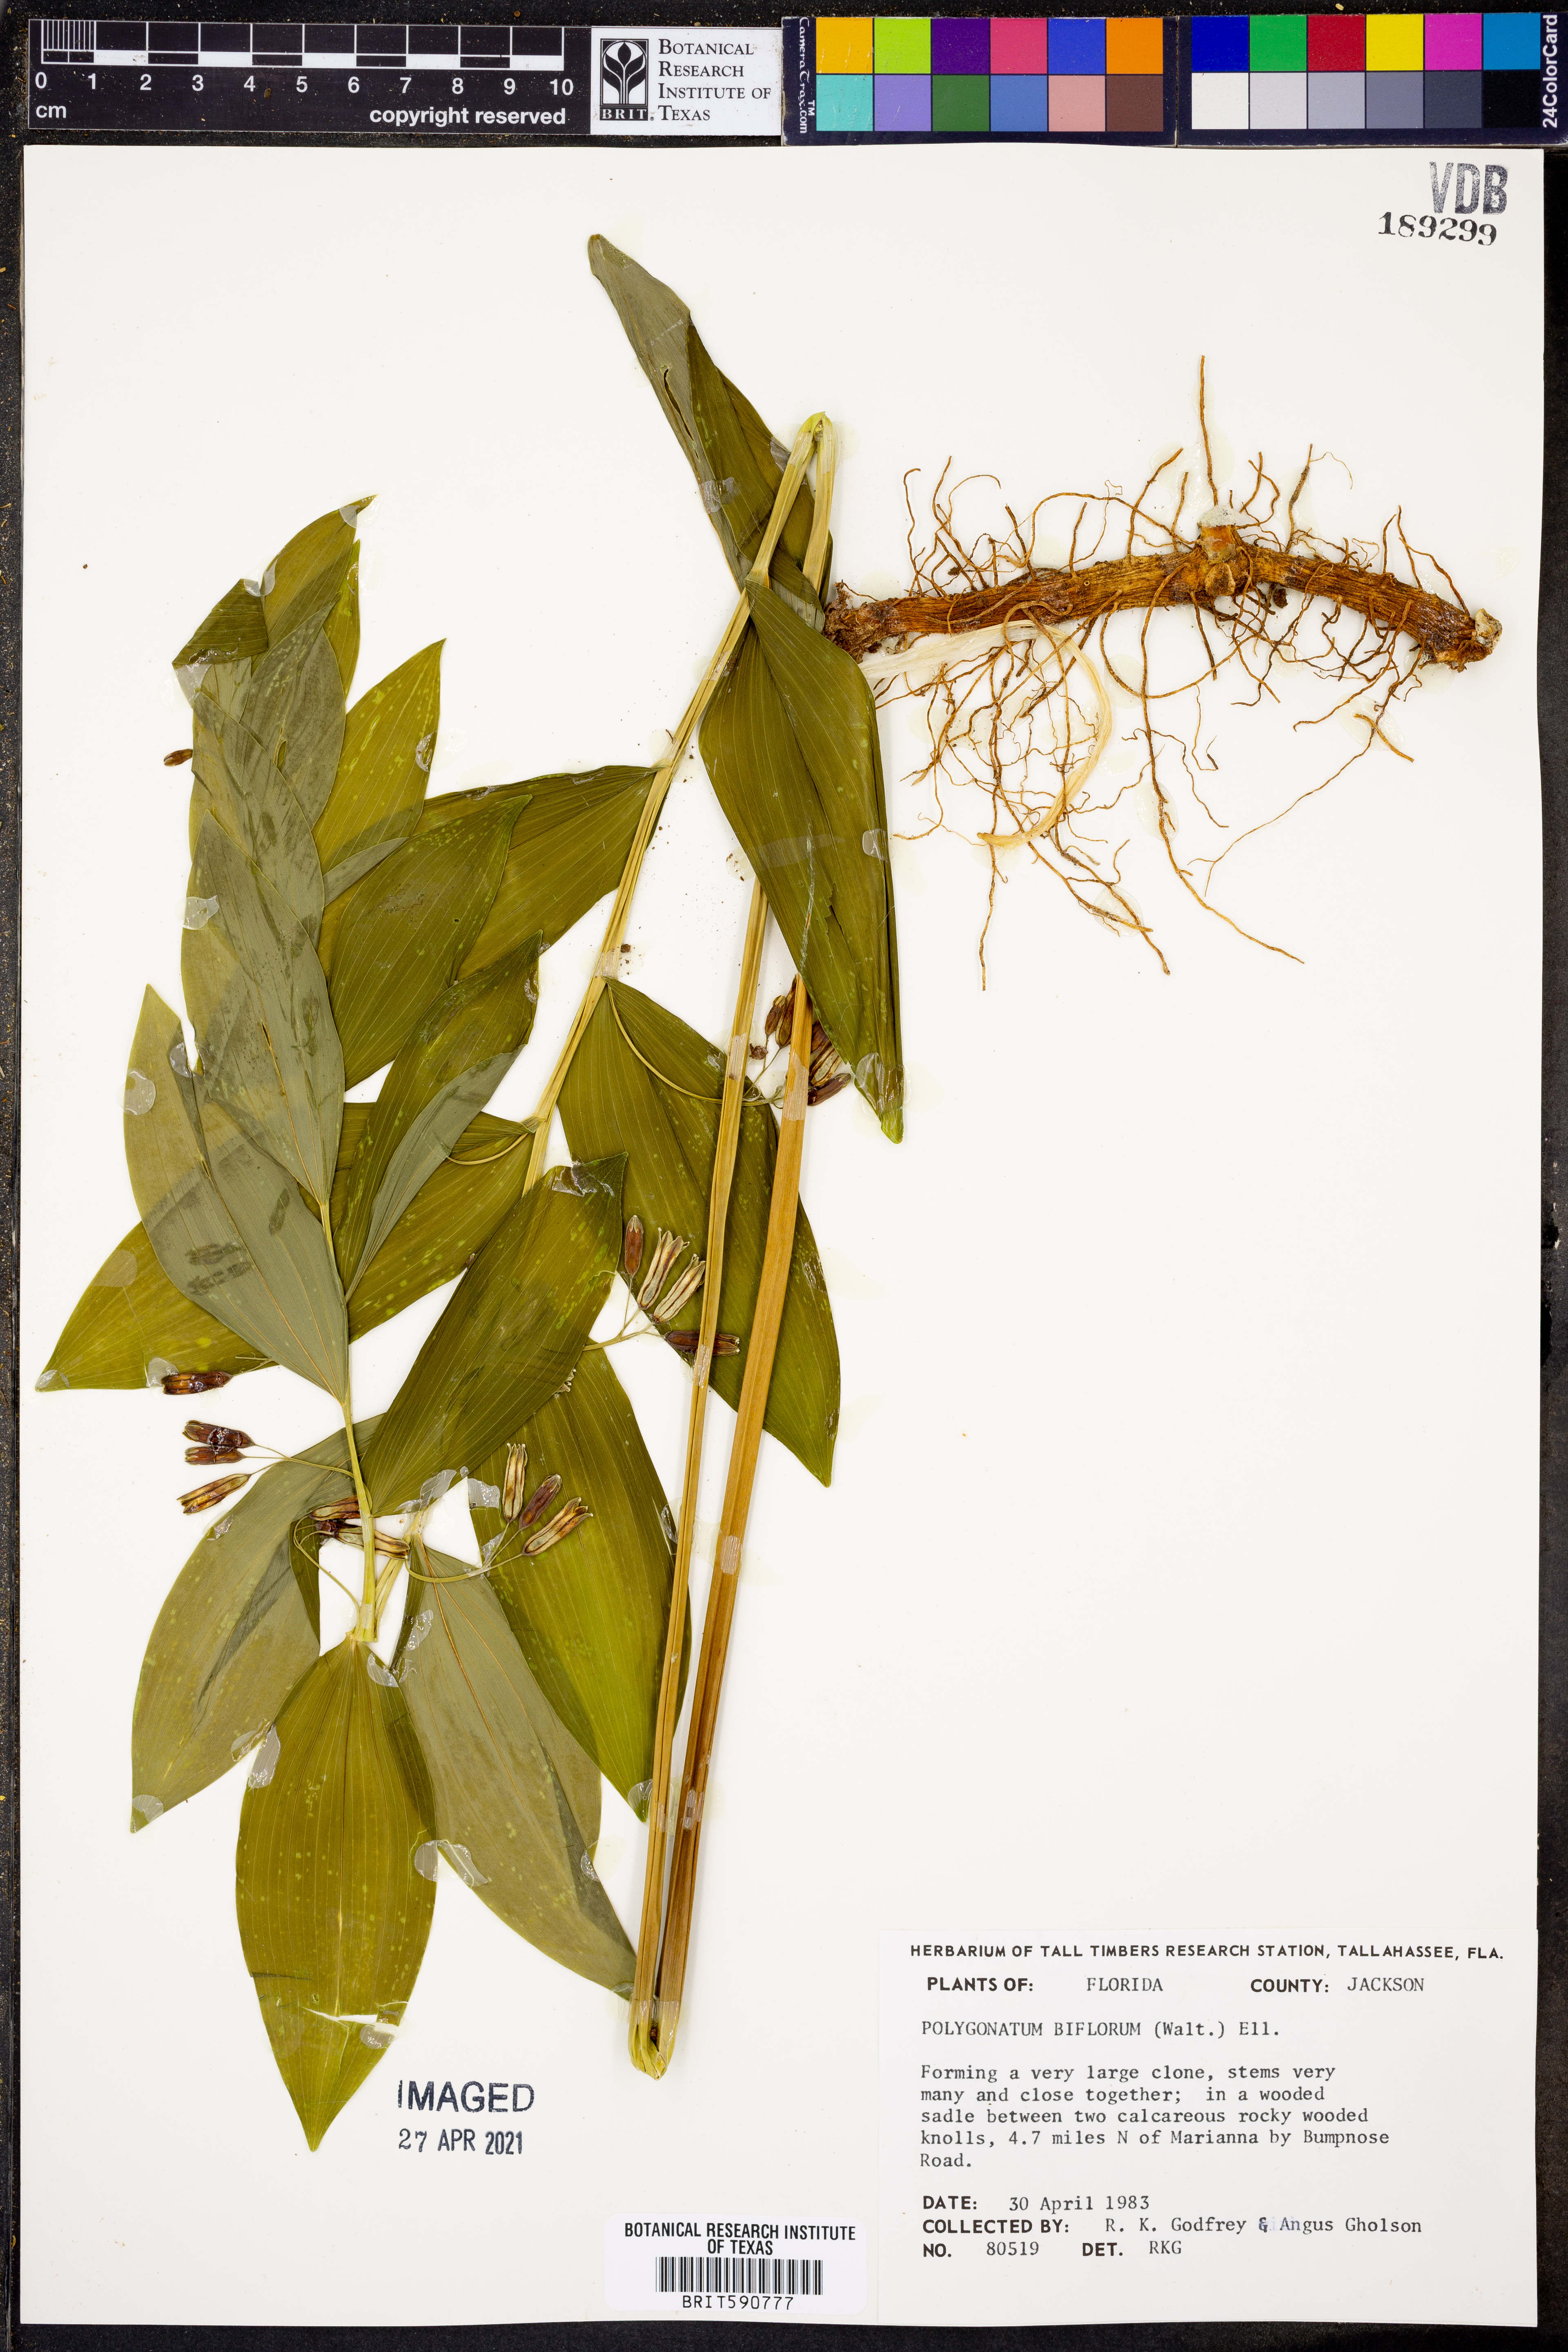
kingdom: Plantae
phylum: Tracheophyta
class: Liliopsida
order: Asparagales
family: Asparagaceae
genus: Polygonatum
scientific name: Polygonatum biflorum
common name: American solomon's-seal
